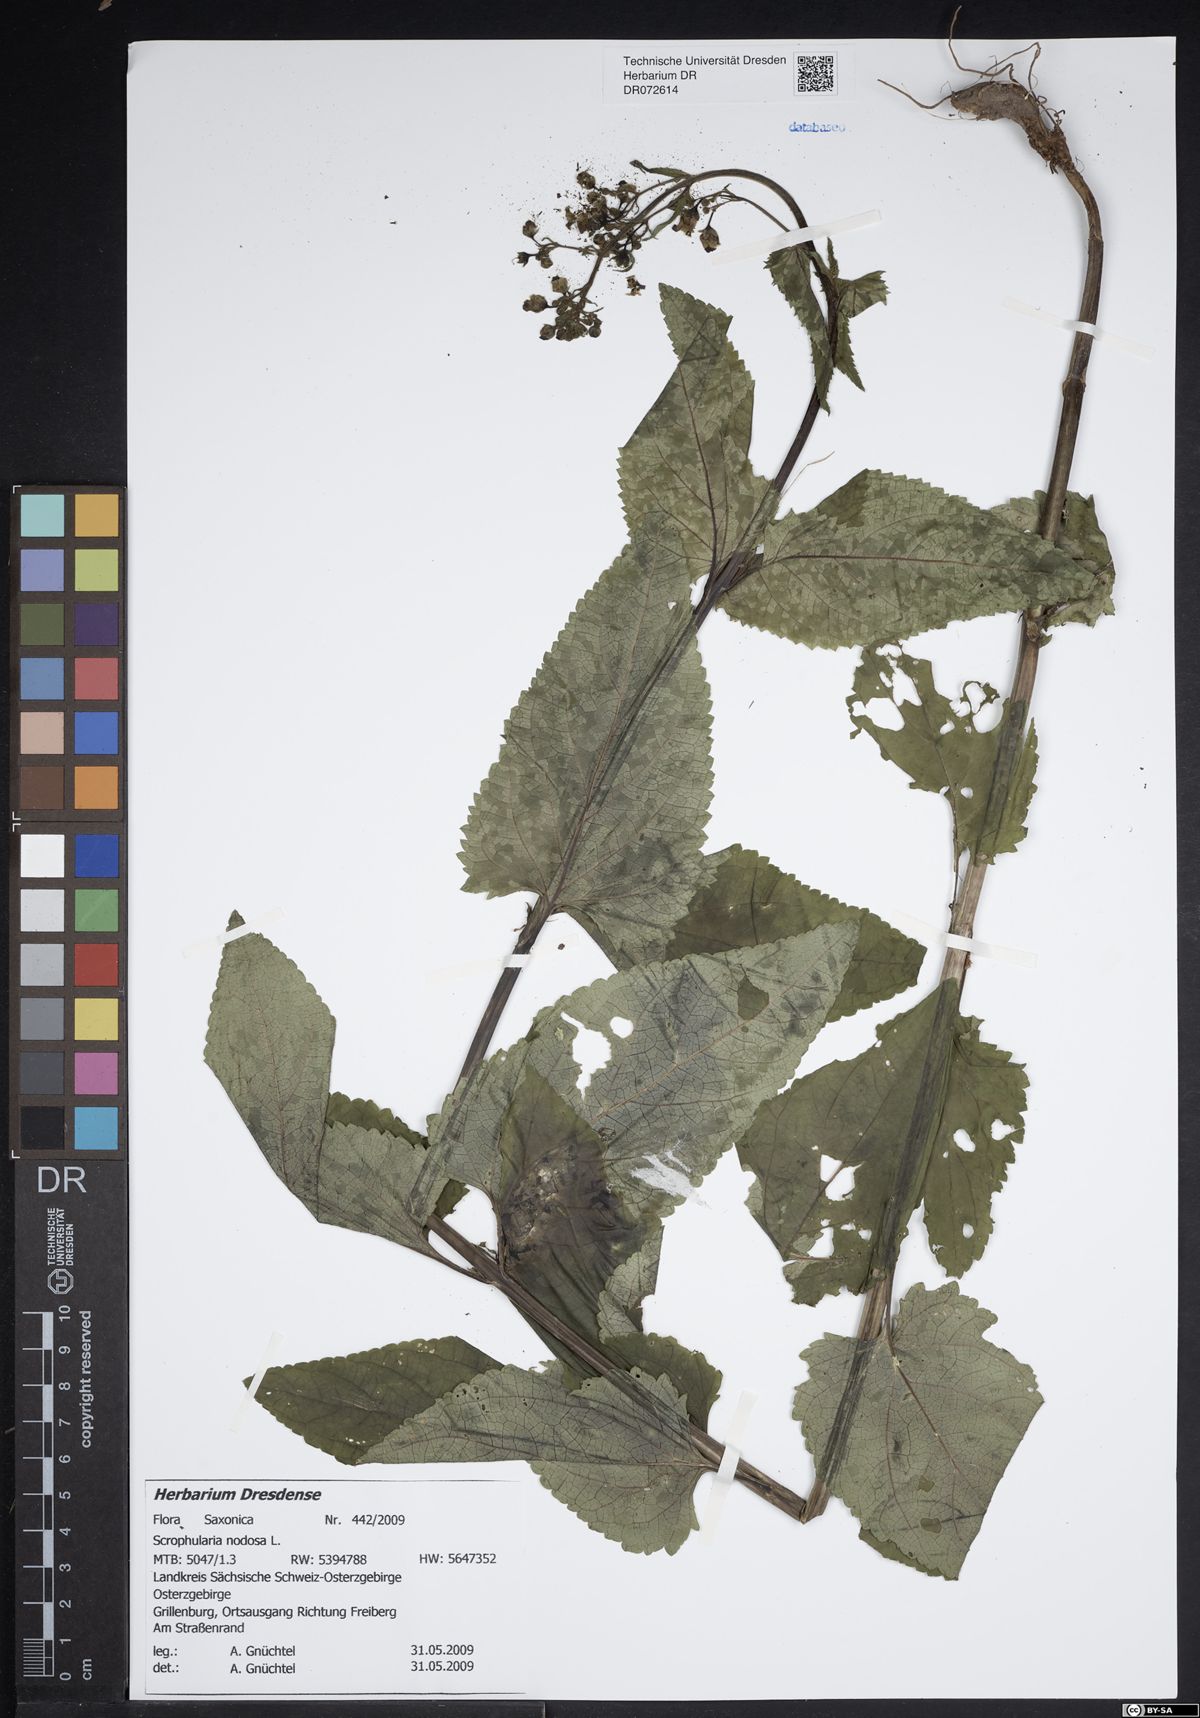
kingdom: Plantae
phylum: Tracheophyta
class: Magnoliopsida
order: Lamiales
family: Scrophulariaceae
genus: Scrophularia
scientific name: Scrophularia nodosa
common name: Common figwort
